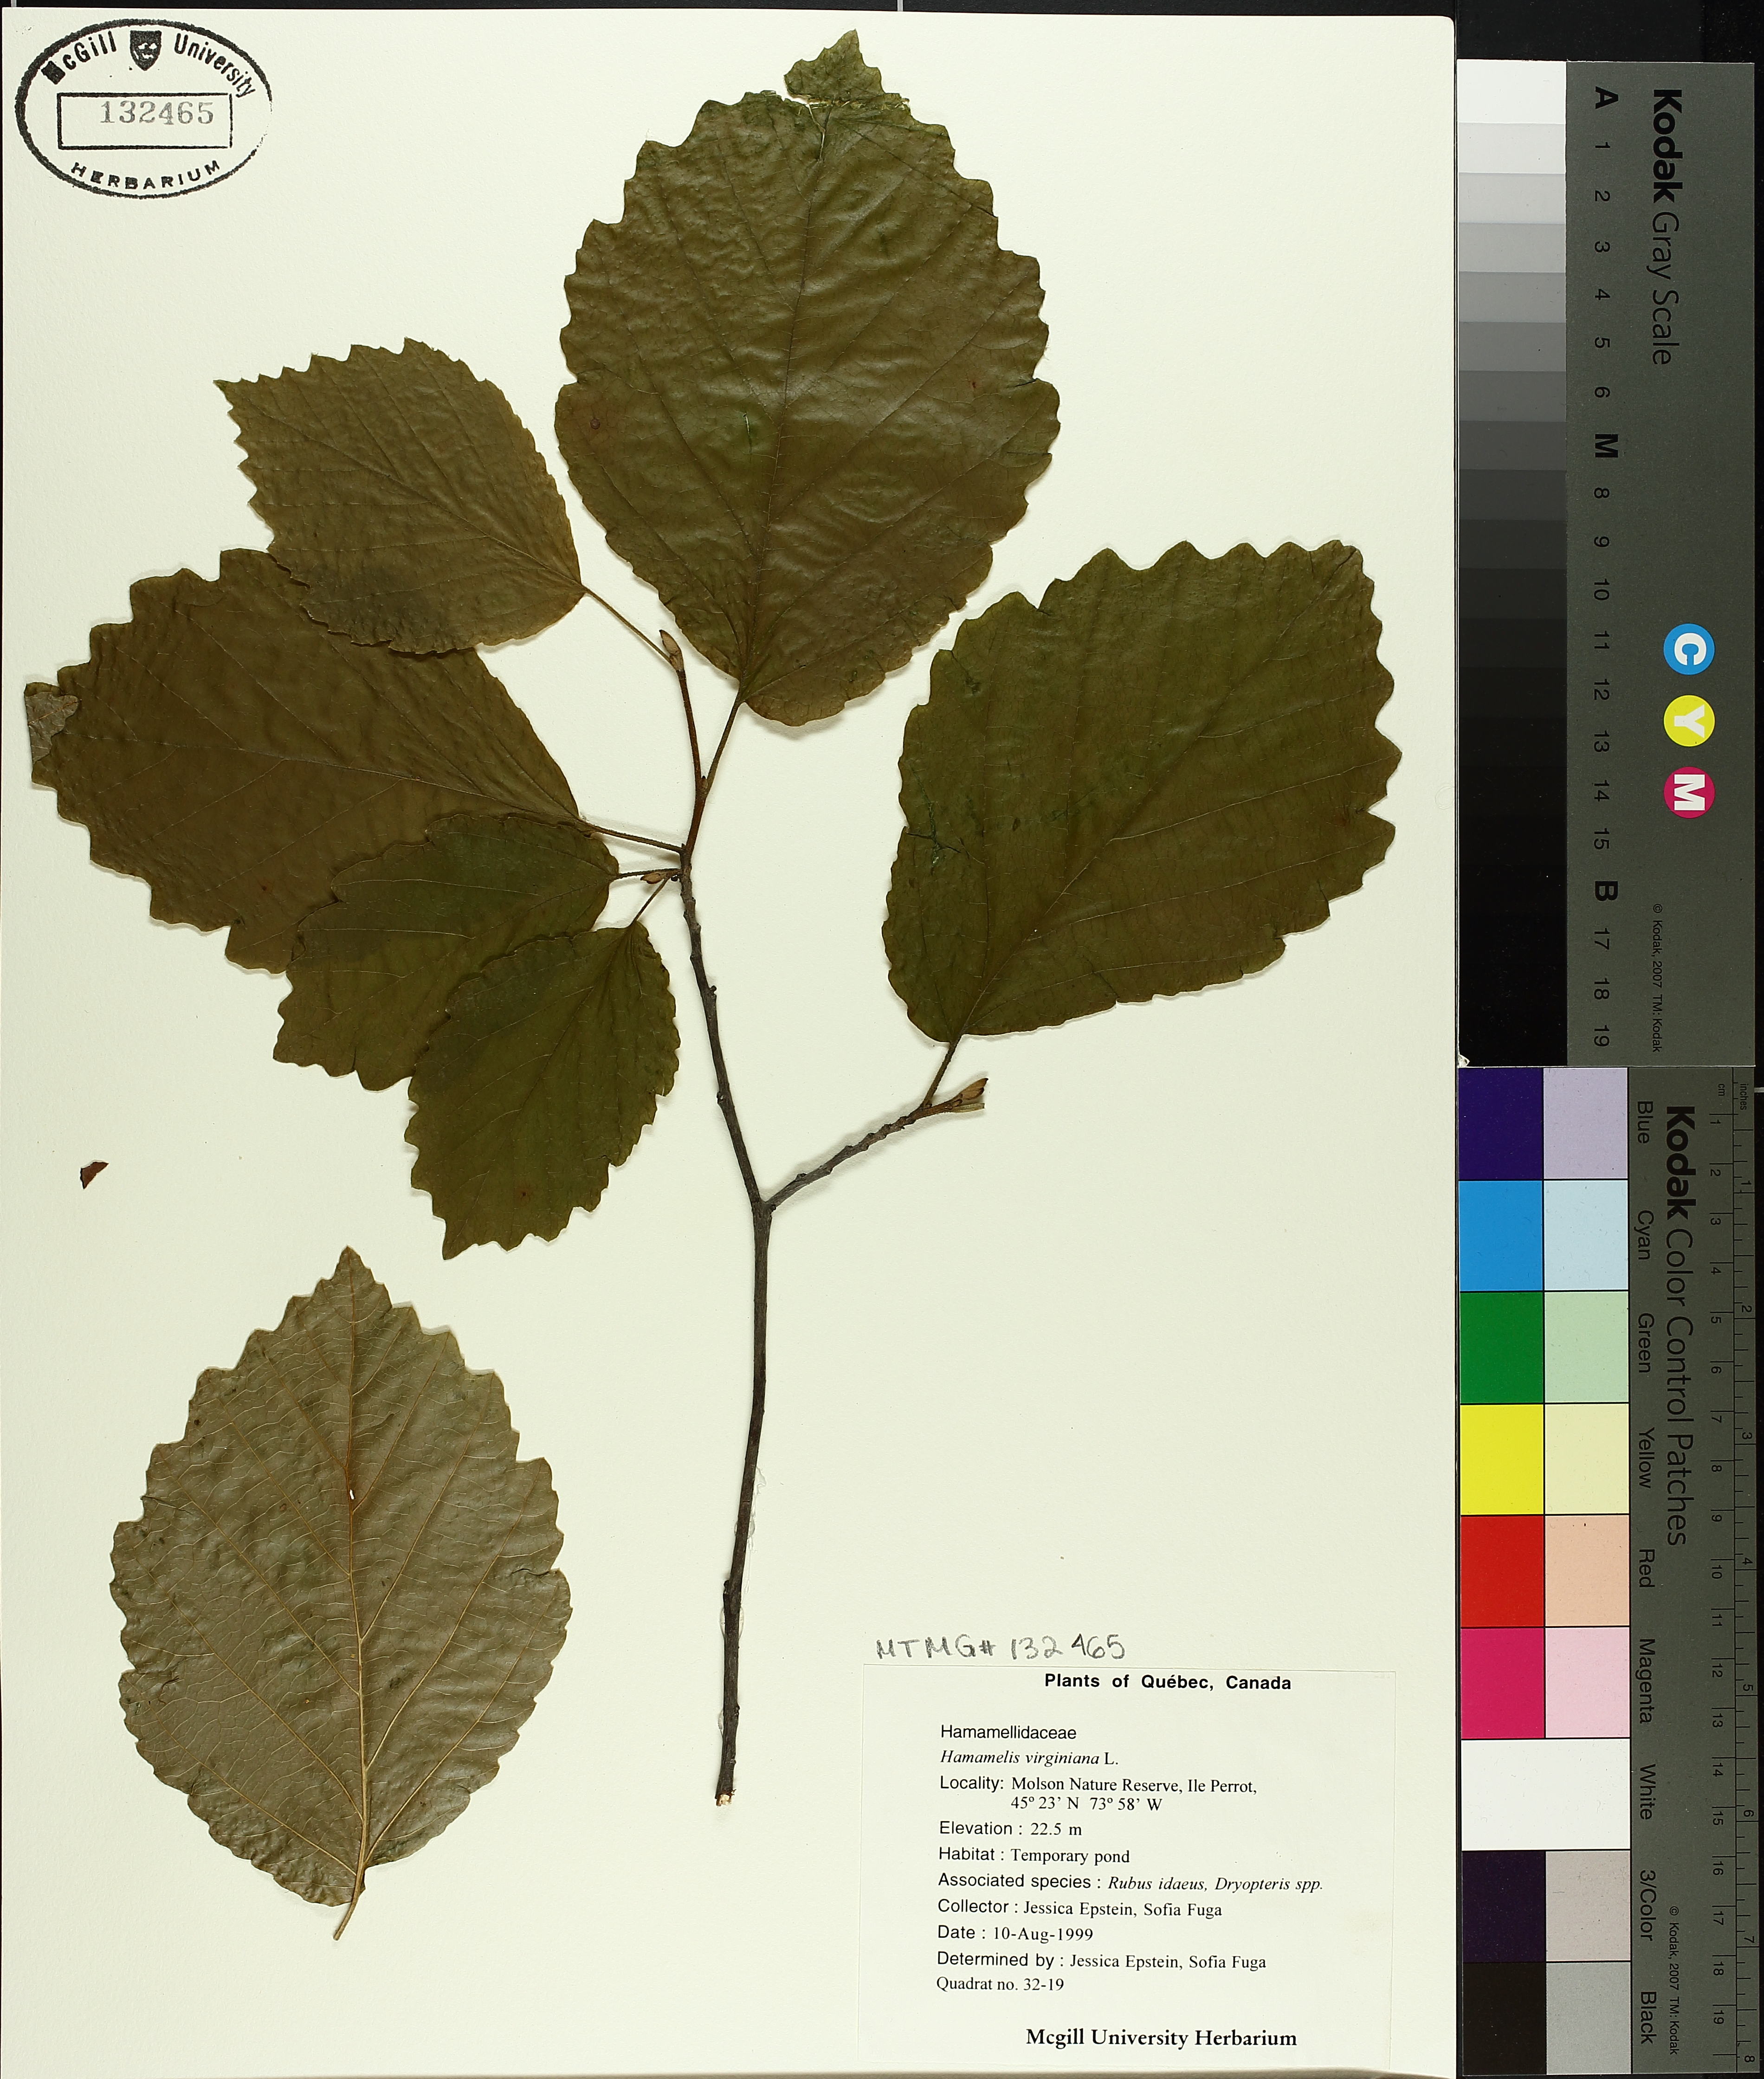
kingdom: Plantae
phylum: Tracheophyta
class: Magnoliopsida
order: Saxifragales
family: Hamamelidaceae
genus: Hamamelis
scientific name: Hamamelis virginiana
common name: Witch-hazel
